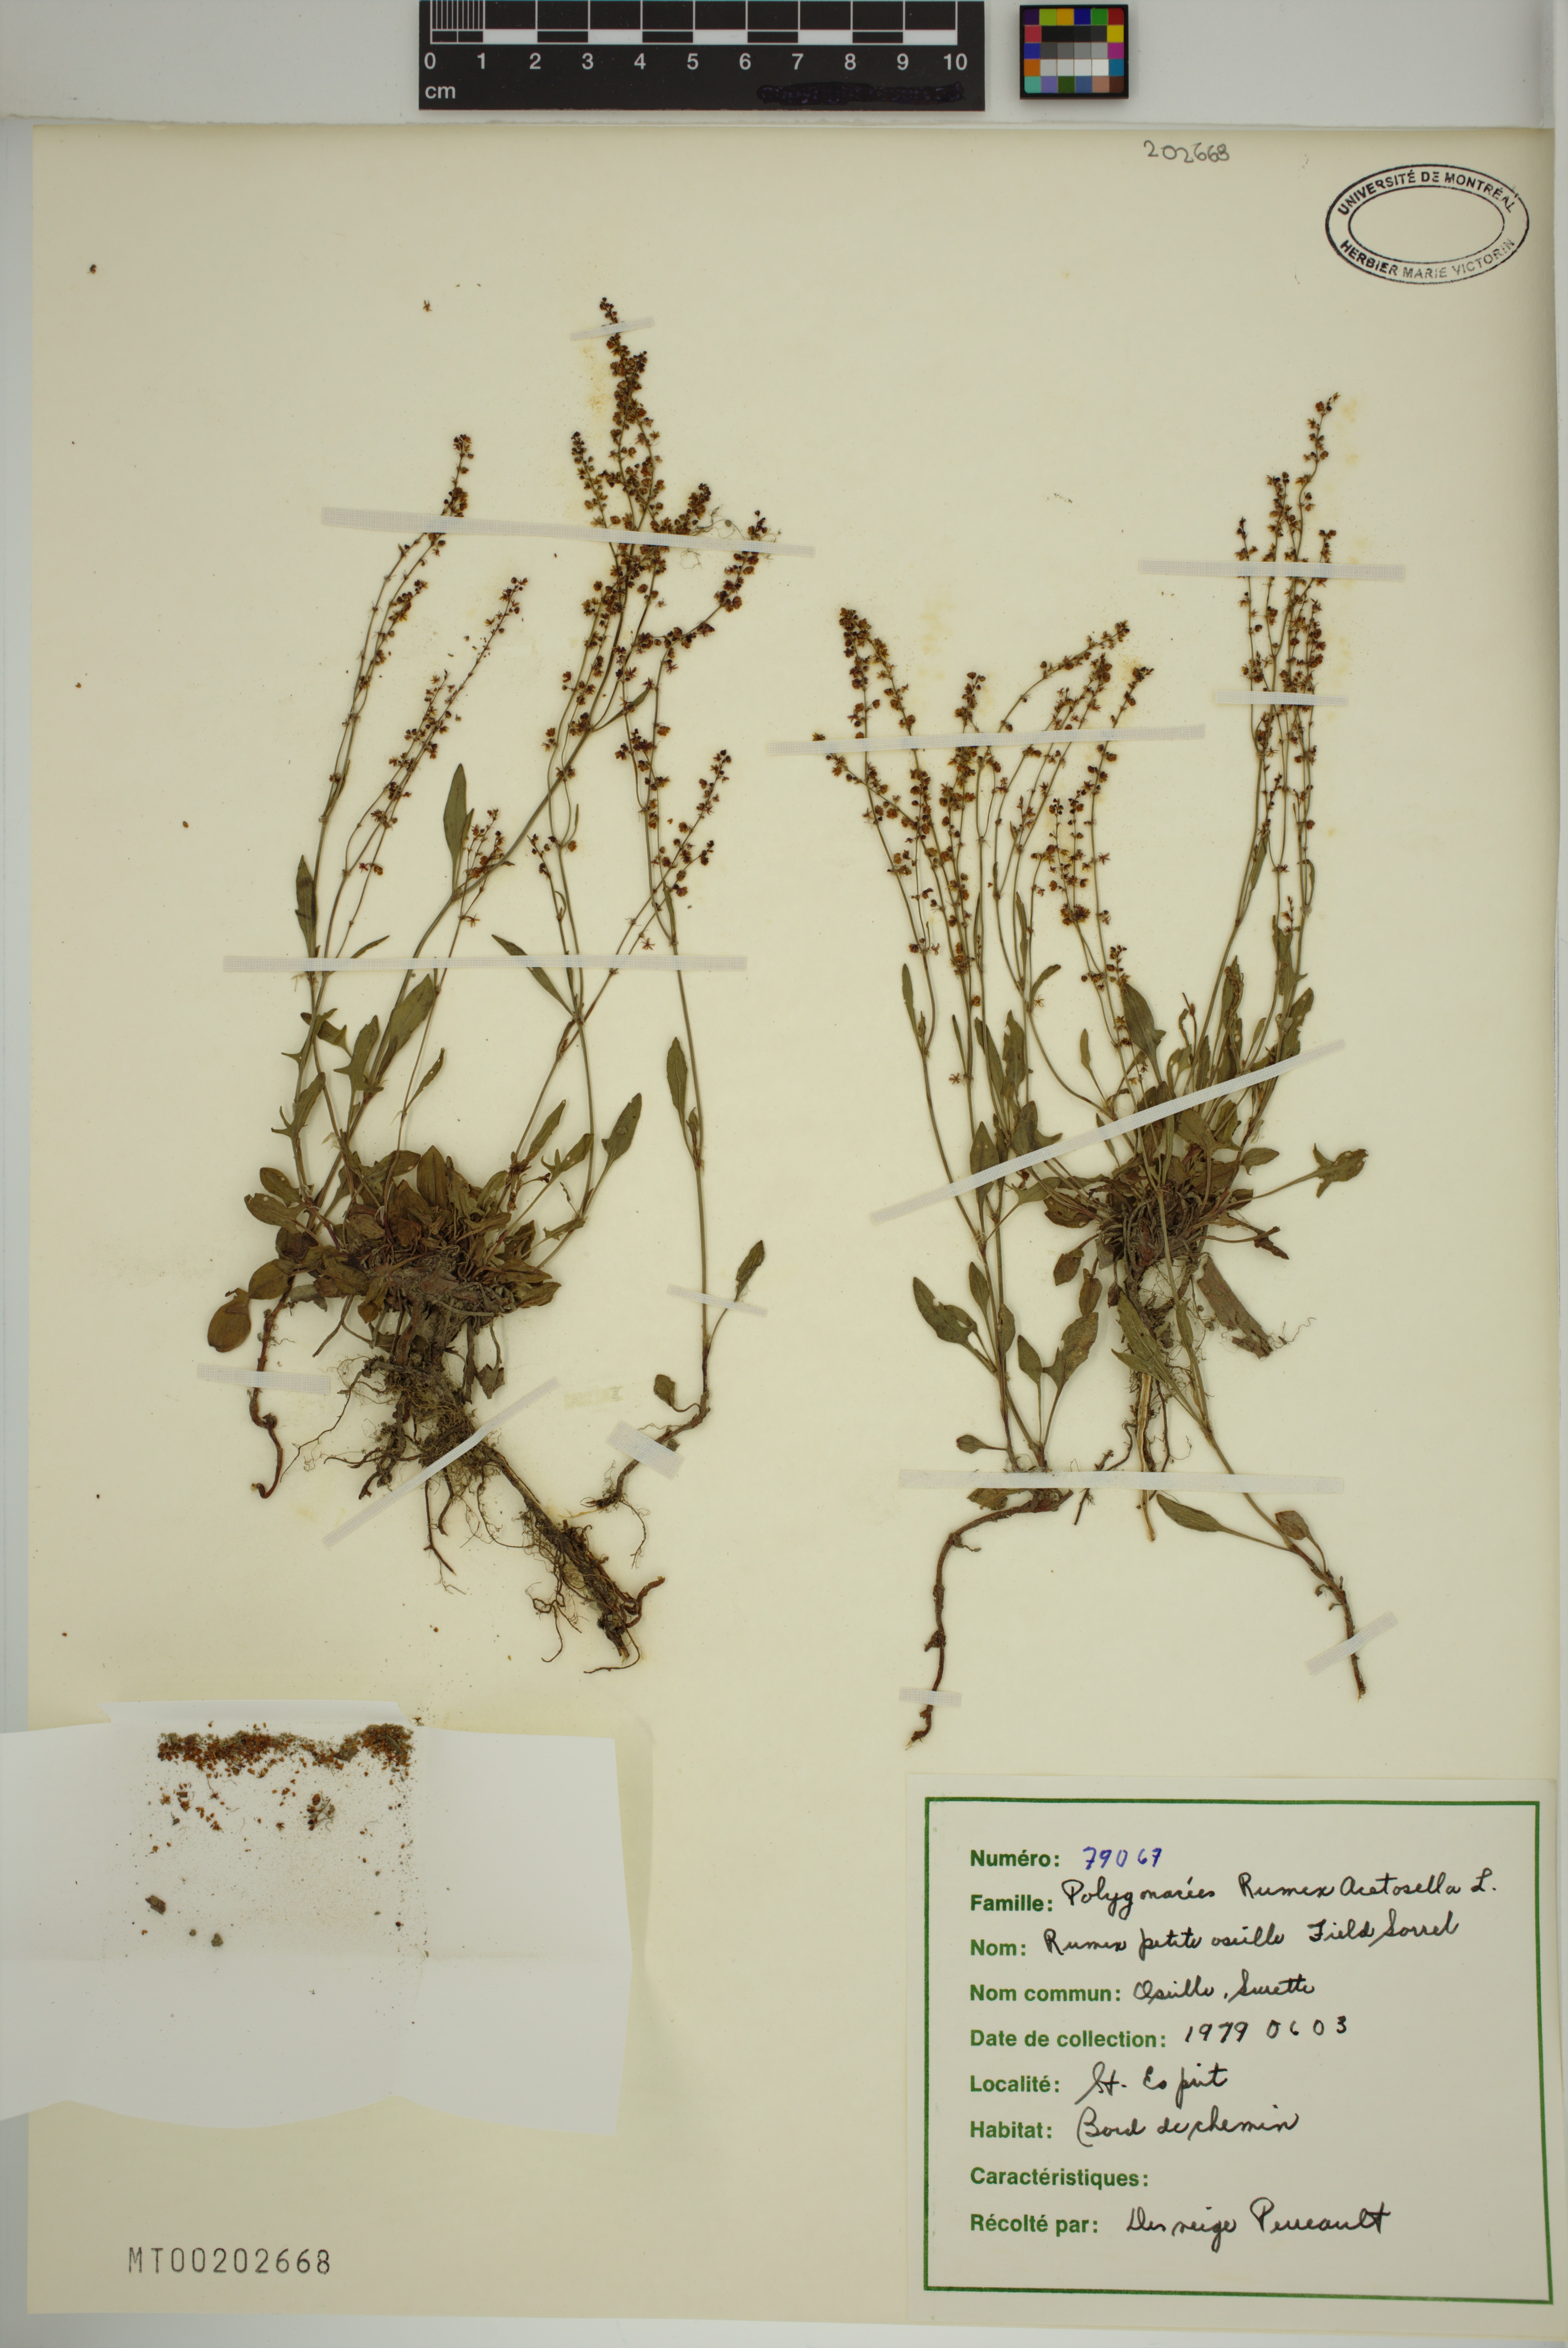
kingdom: Plantae
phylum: Tracheophyta
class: Magnoliopsida
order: Caryophyllales
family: Polygonaceae
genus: Rumex
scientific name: Rumex acetosella
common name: Common sheep sorrel
